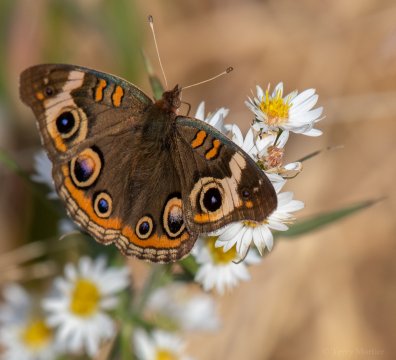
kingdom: Animalia
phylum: Arthropoda
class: Insecta
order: Lepidoptera
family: Nymphalidae
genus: Junonia
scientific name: Junonia coenia
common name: Common Buckeye
